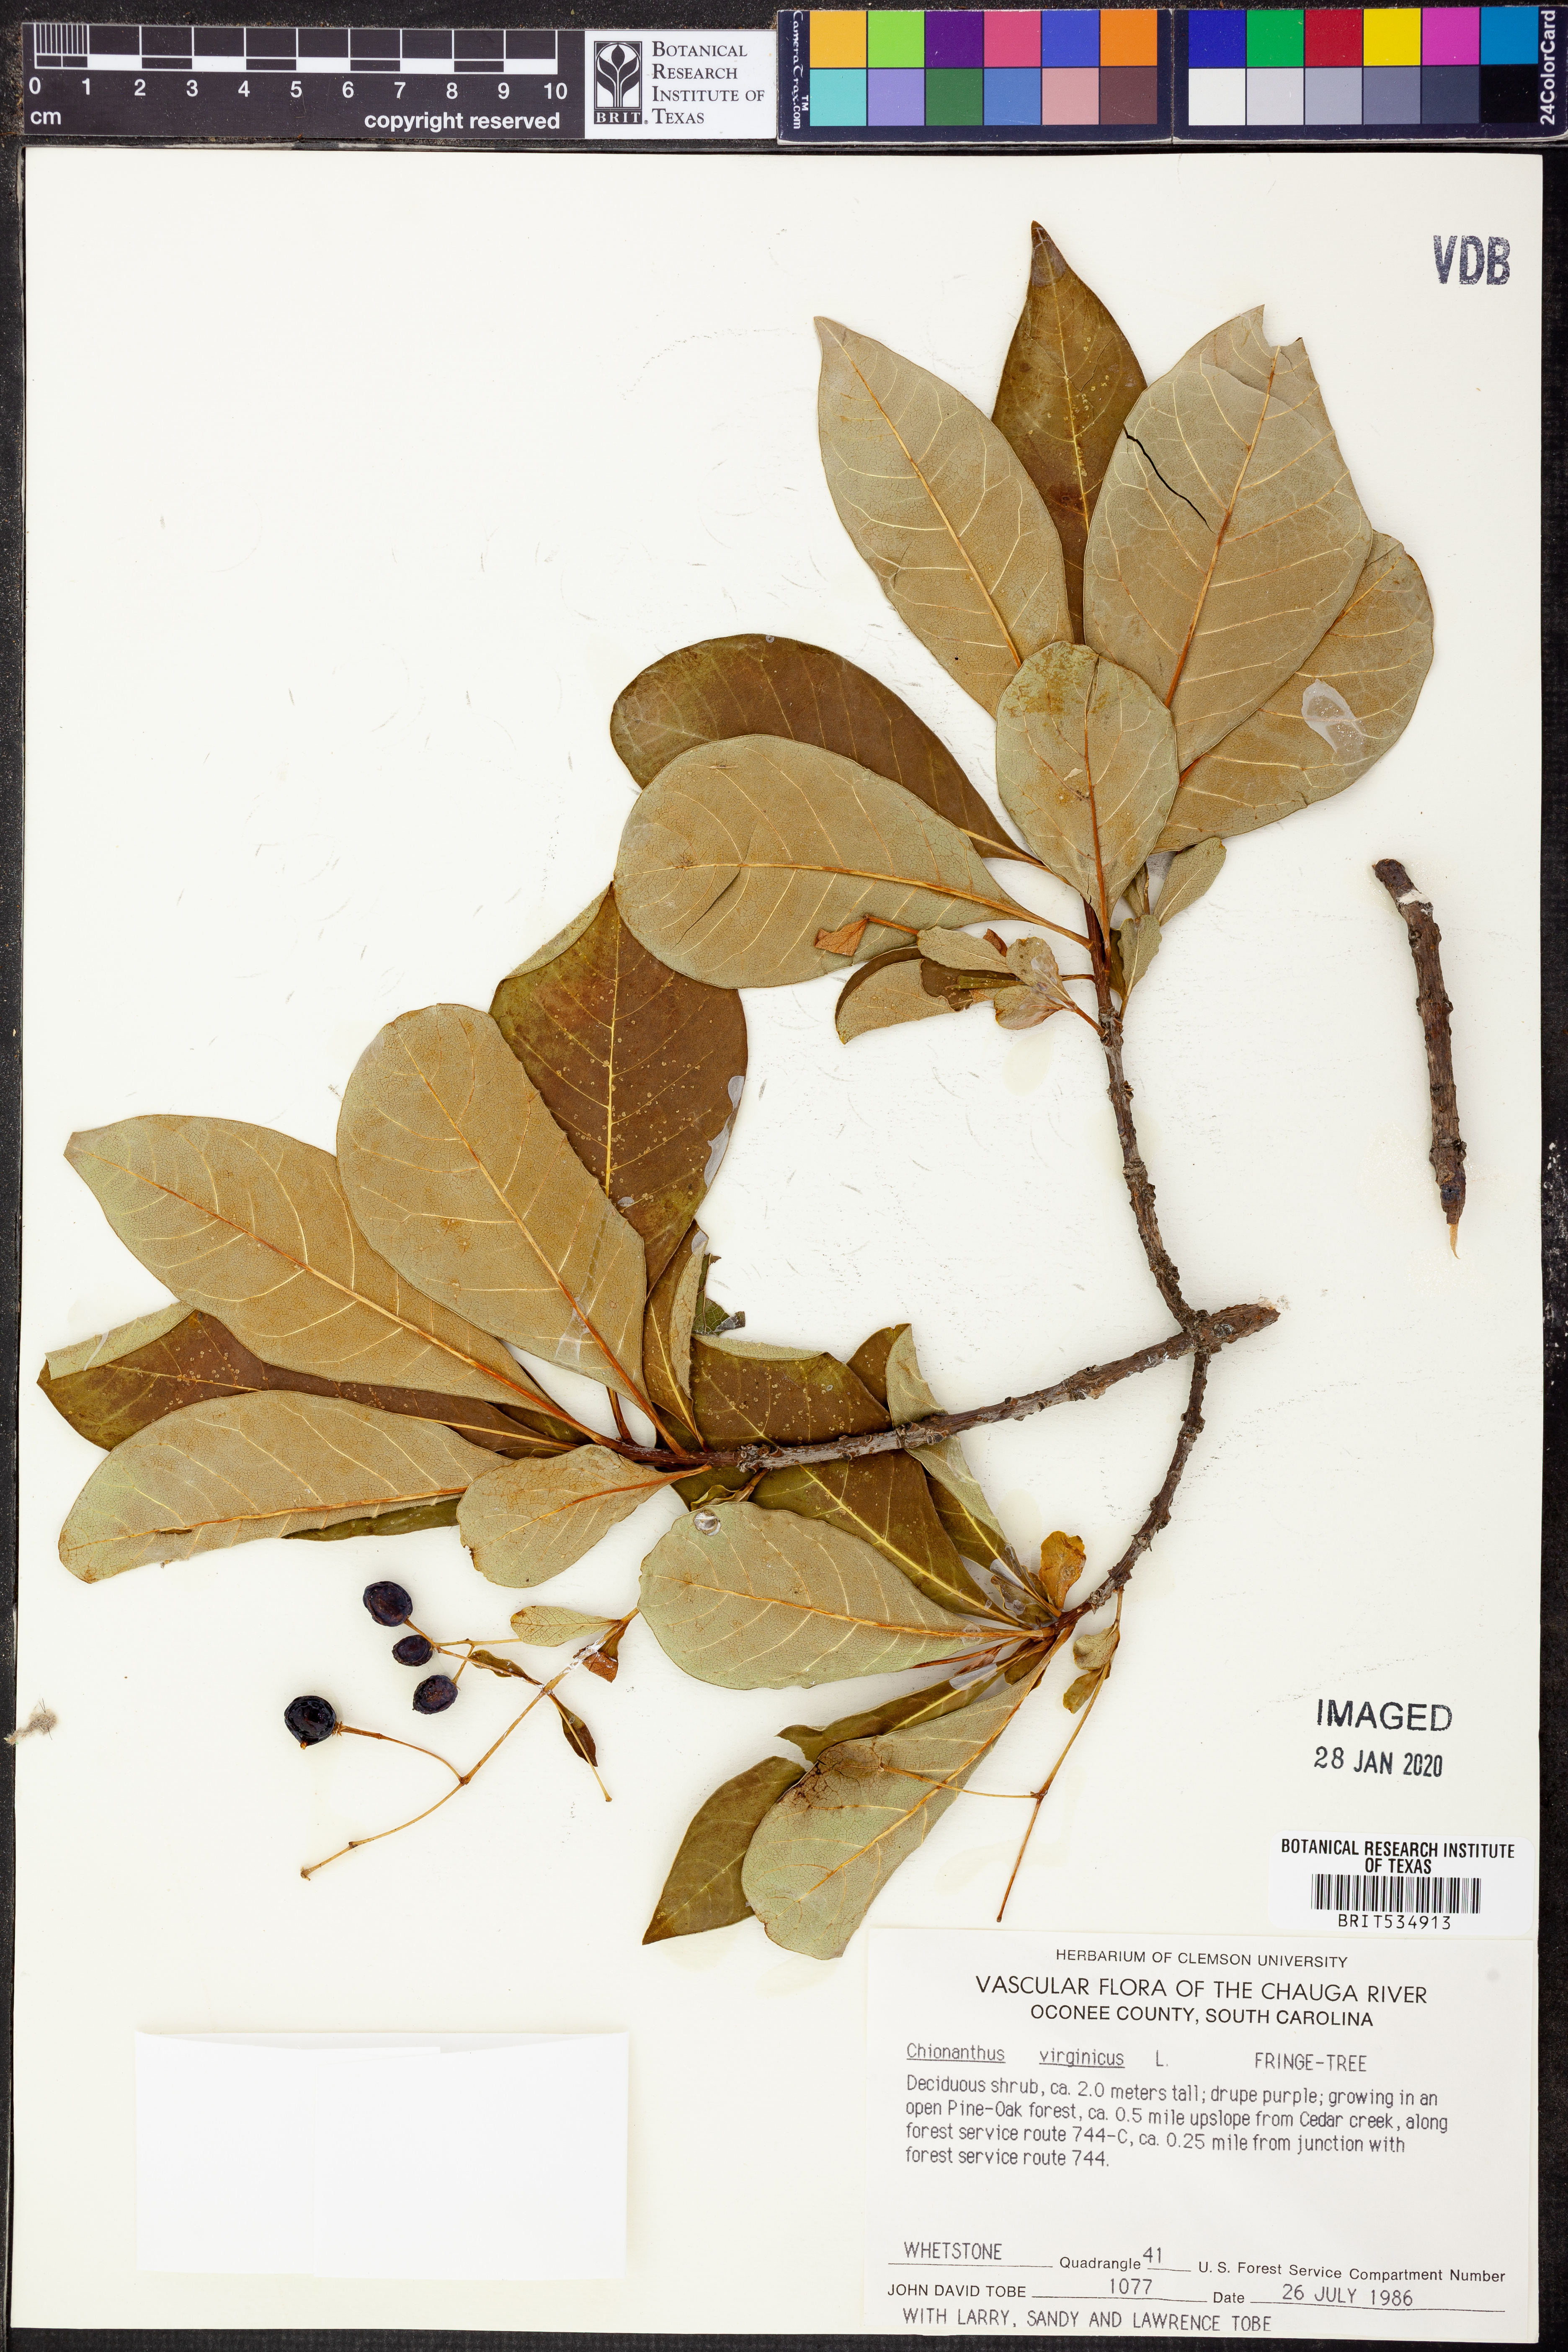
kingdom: Plantae
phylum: Tracheophyta
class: Magnoliopsida
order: Lamiales
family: Oleaceae
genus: Chionanthus
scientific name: Chionanthus virginicus
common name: American fringetree
